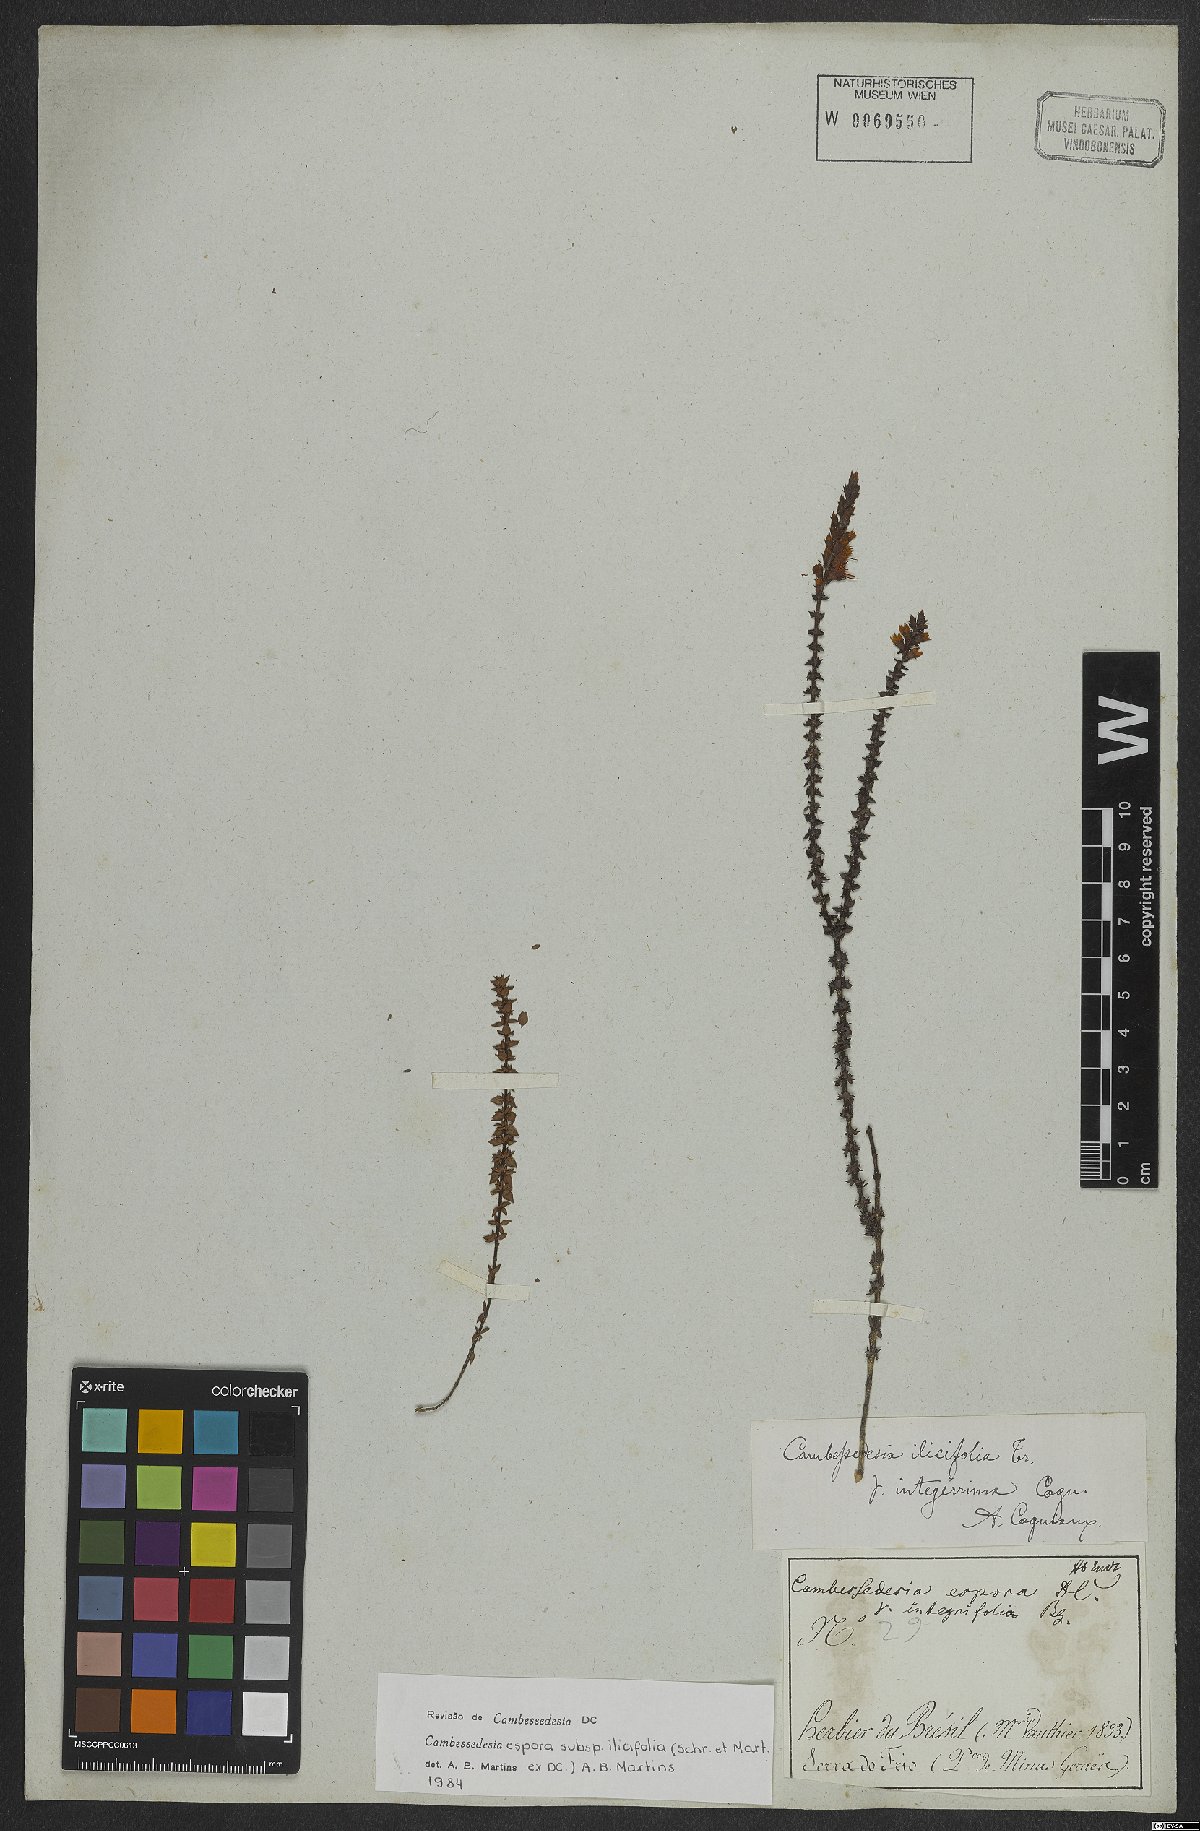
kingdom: Plantae
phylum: Tracheophyta
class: Magnoliopsida
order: Myrtales
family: Melastomataceae
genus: Cambessedesia
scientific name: Cambessedesia espora
